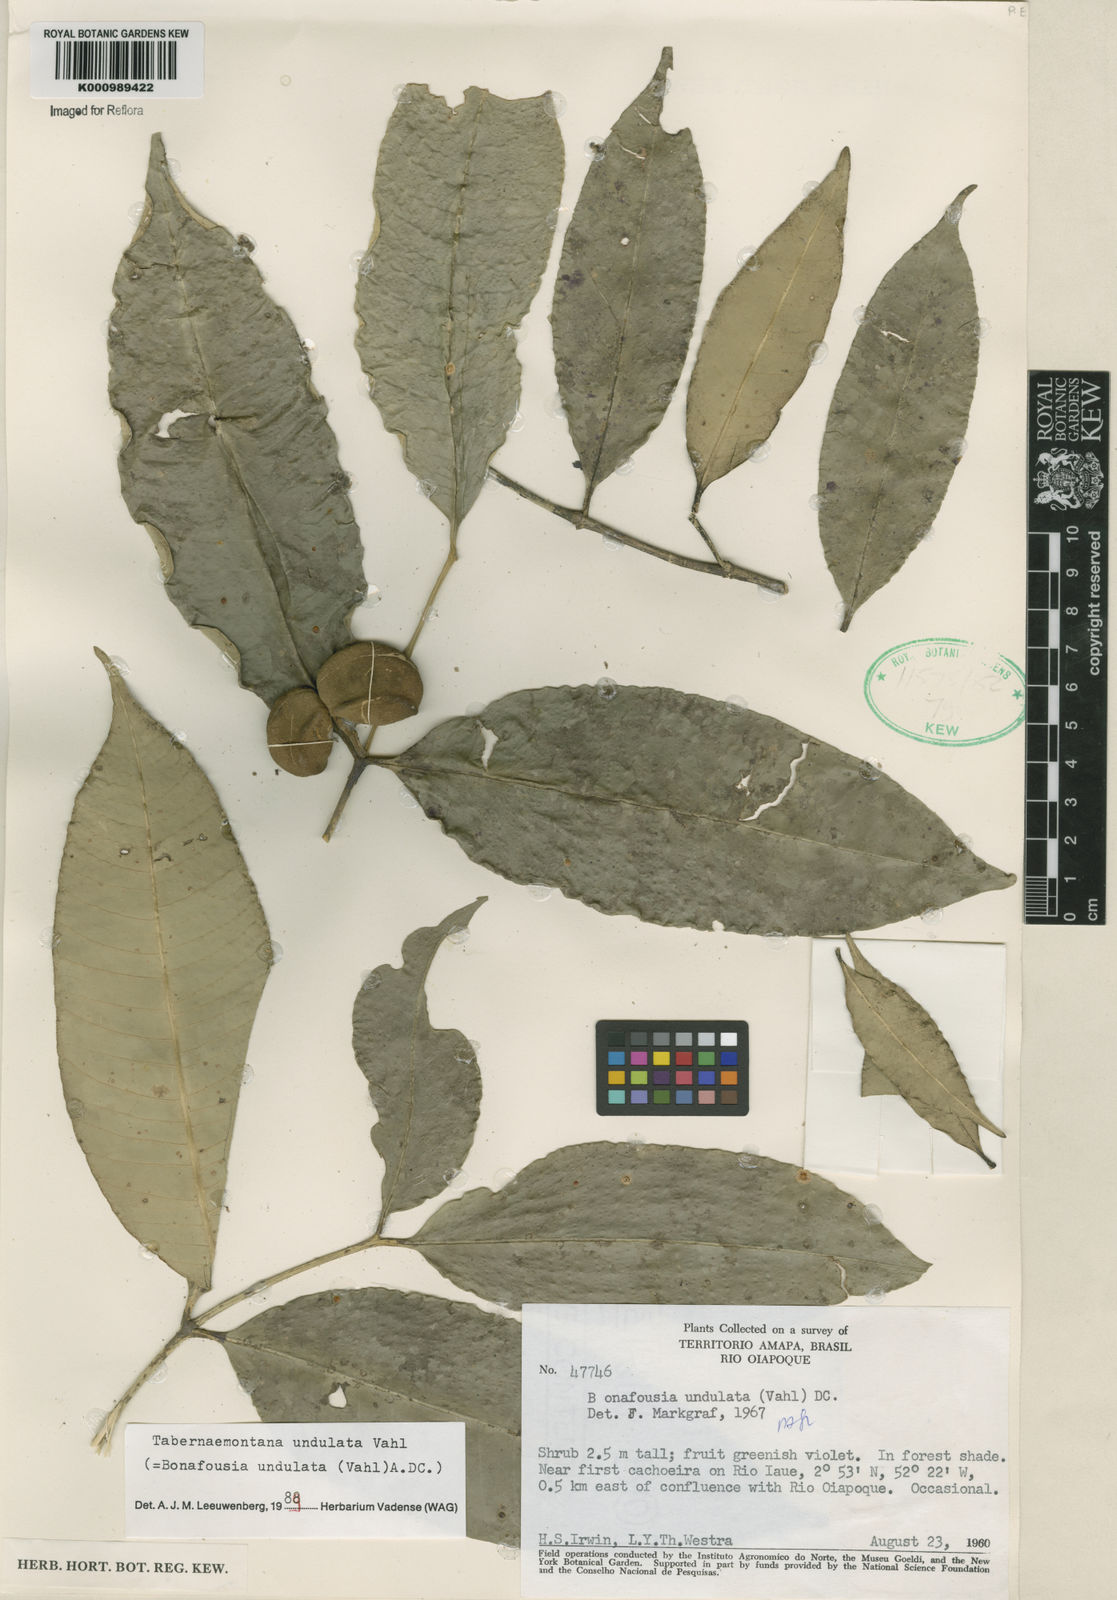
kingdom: Plantae
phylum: Tracheophyta
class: Magnoliopsida
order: Gentianales
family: Apocynaceae
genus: Tabernaemontana
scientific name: Tabernaemontana undulata
